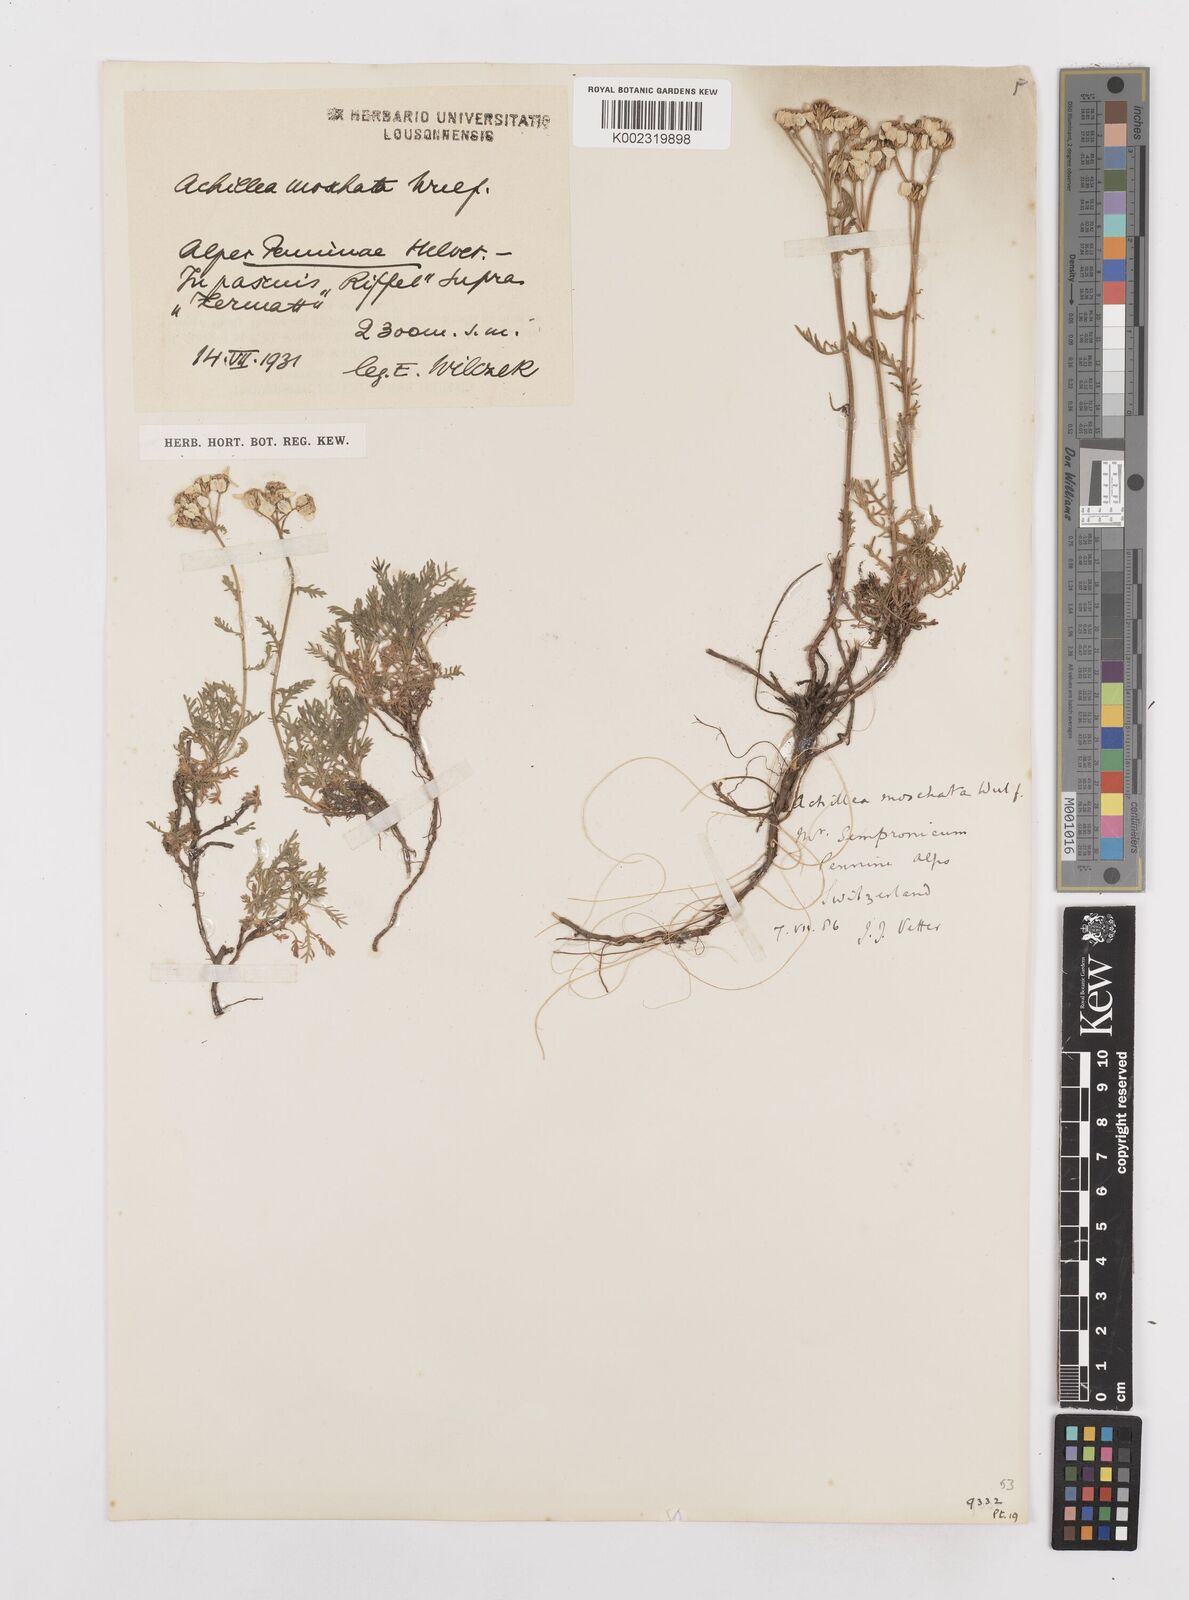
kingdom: Plantae
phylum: Tracheophyta
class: Magnoliopsida
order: Asterales
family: Asteraceae
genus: Achillea
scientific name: Achillea erba-rotta
